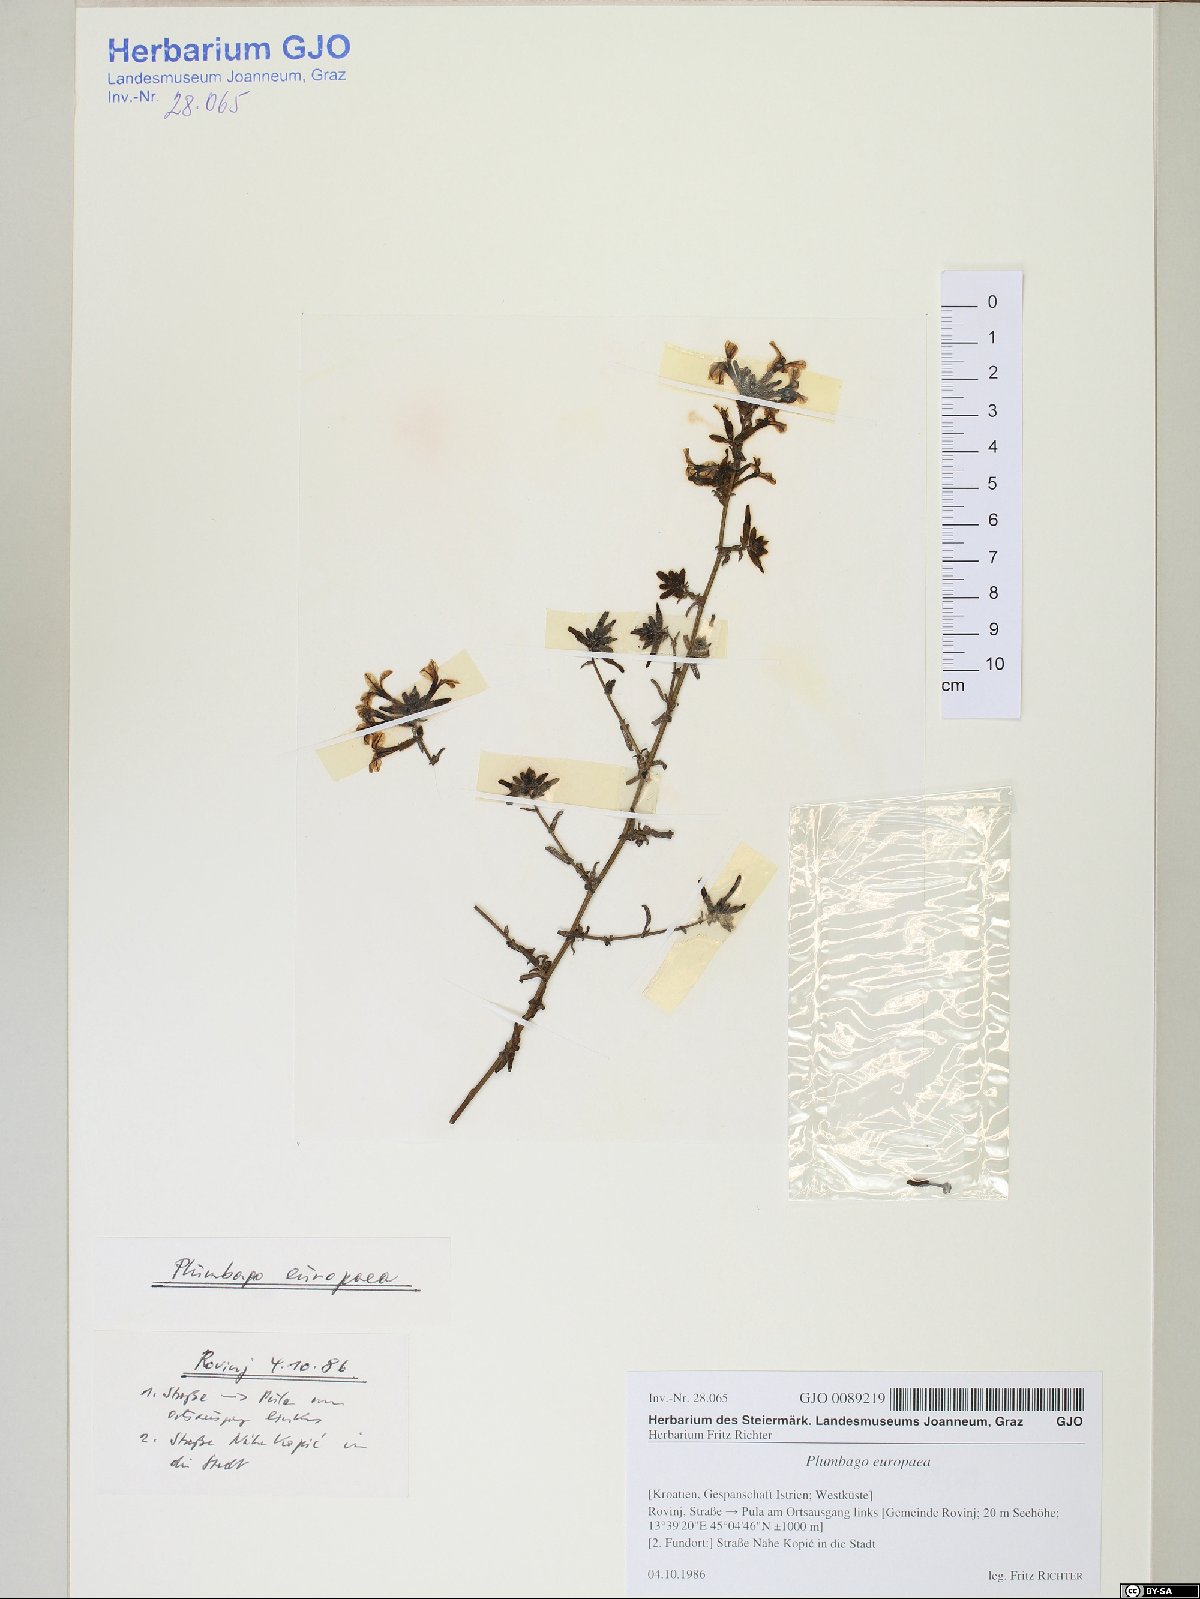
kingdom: Plantae
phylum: Tracheophyta
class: Magnoliopsida
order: Caryophyllales
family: Plumbaginaceae
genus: Plumbago
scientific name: Plumbago europaea
